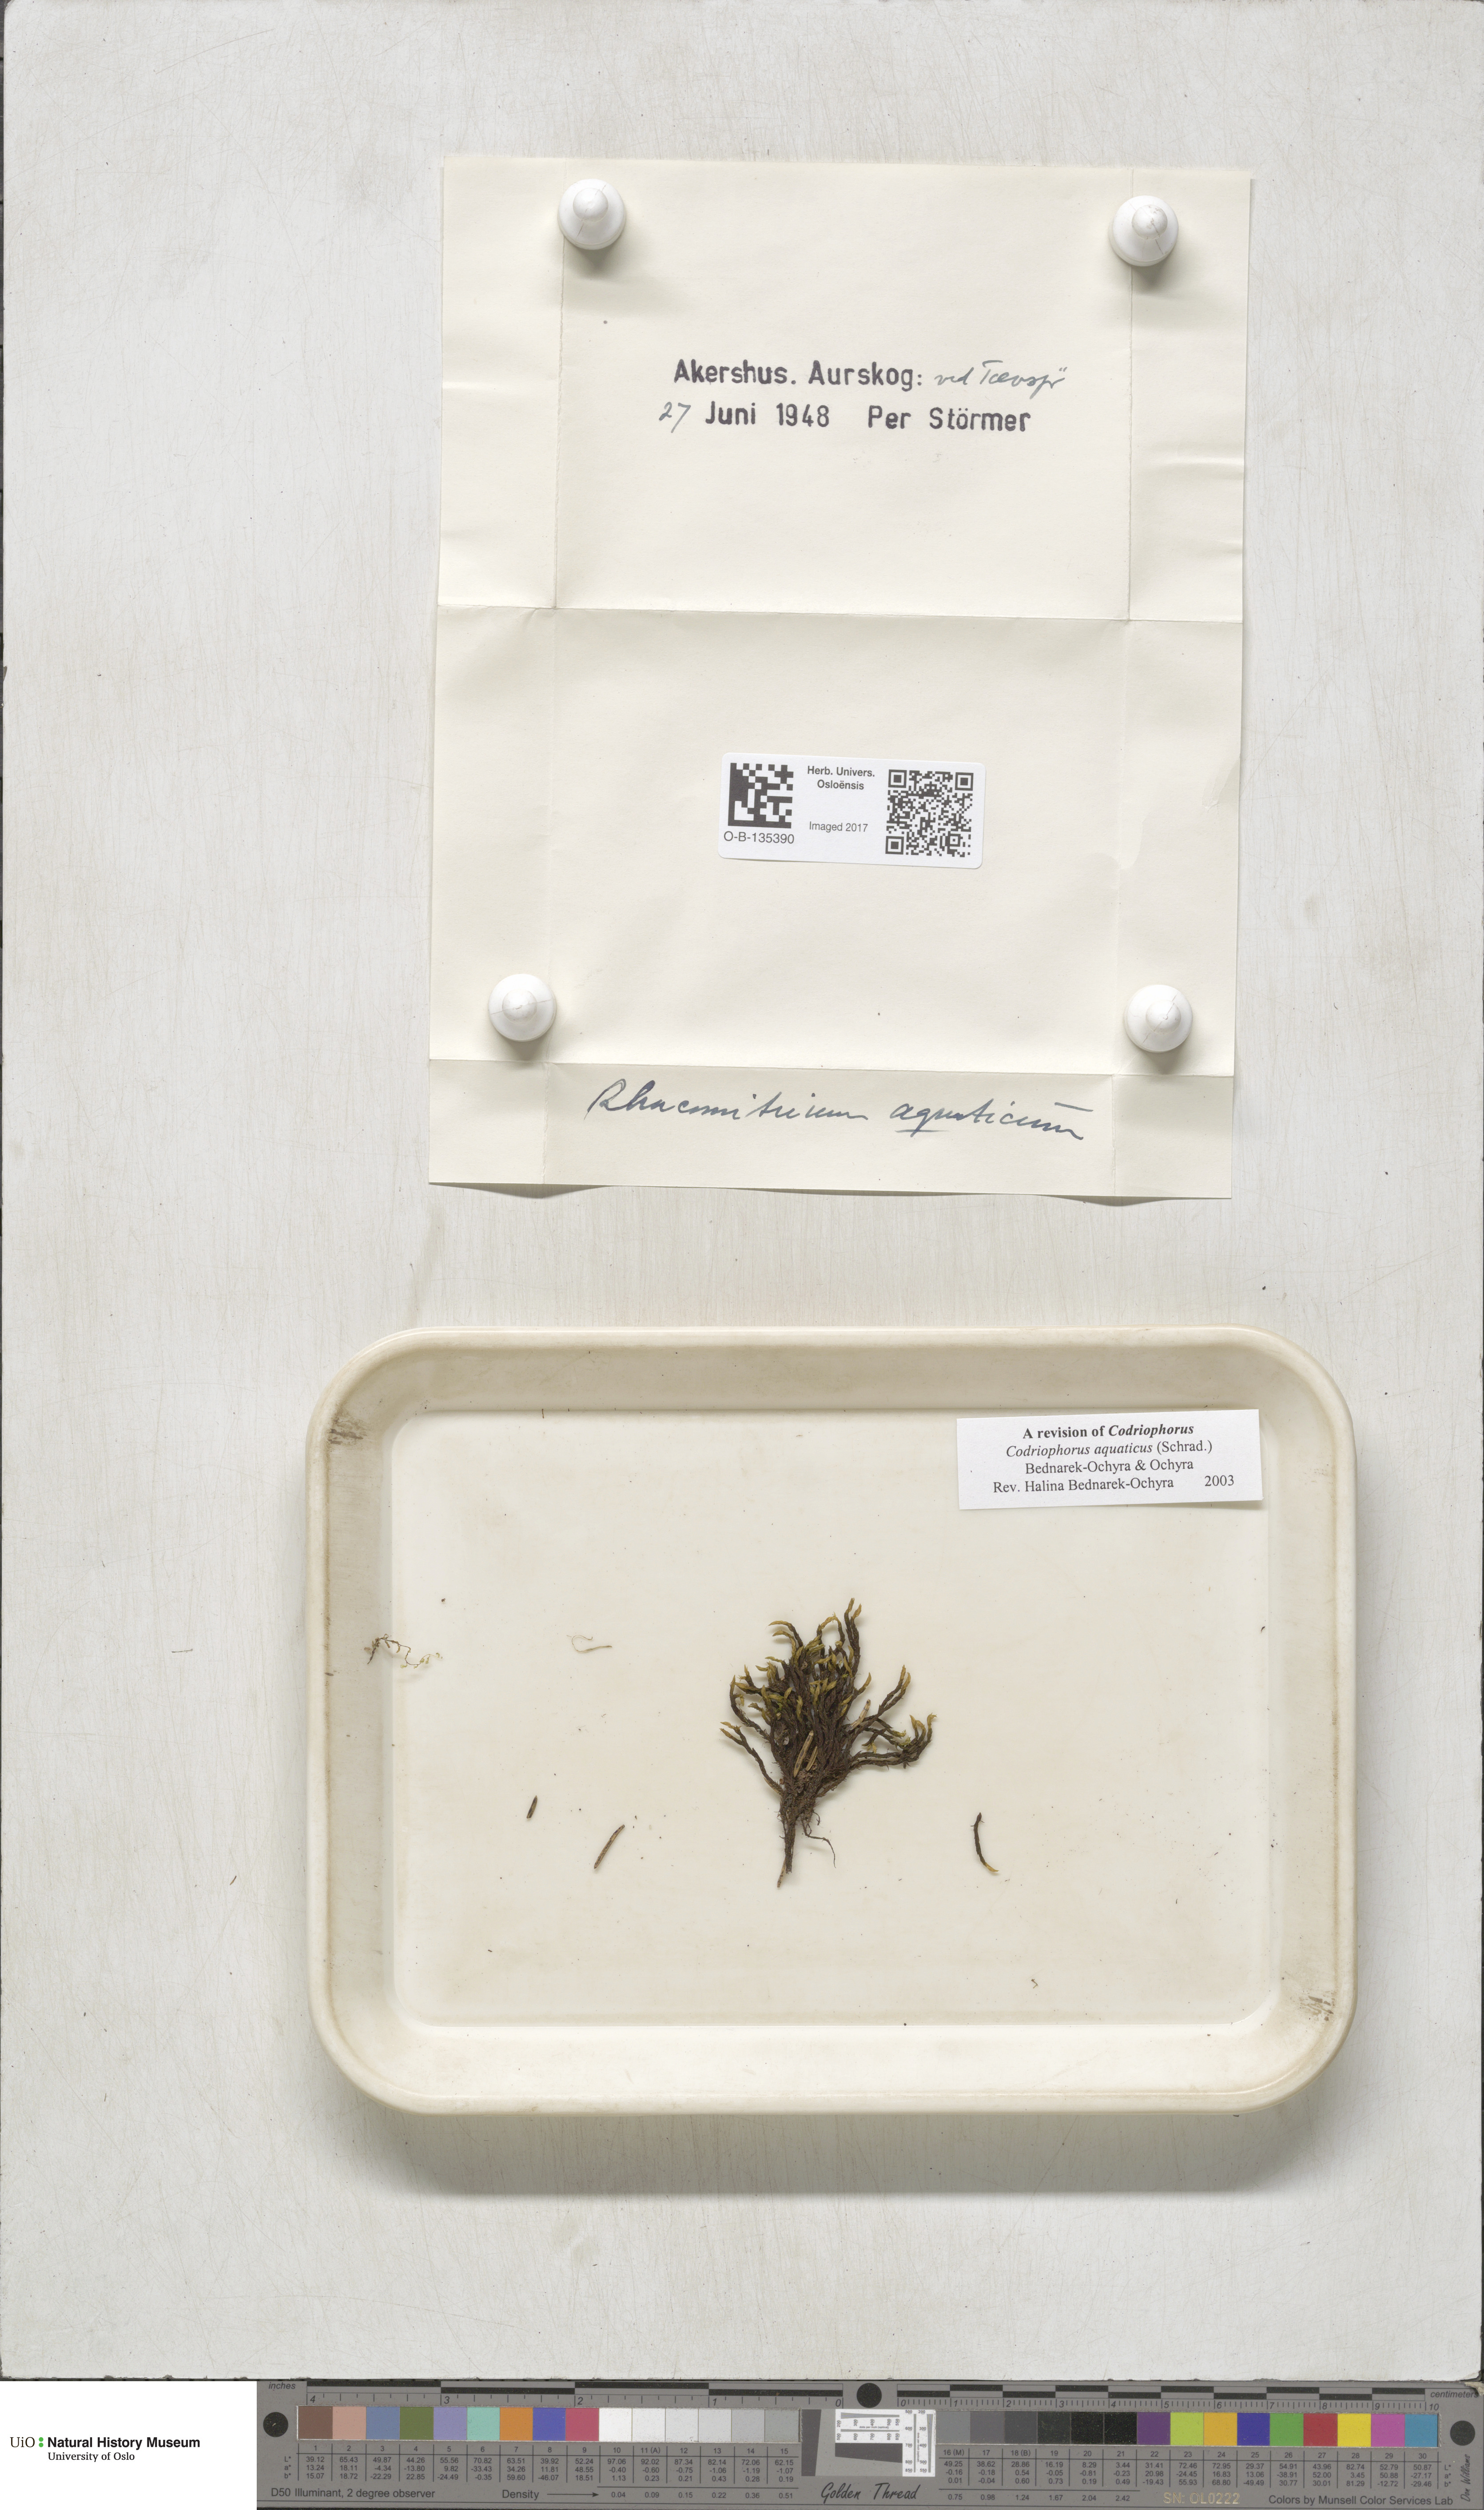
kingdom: Plantae
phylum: Bryophyta
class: Bryopsida
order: Grimmiales
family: Grimmiaceae
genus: Codriophorus
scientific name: Codriophorus aquaticus
